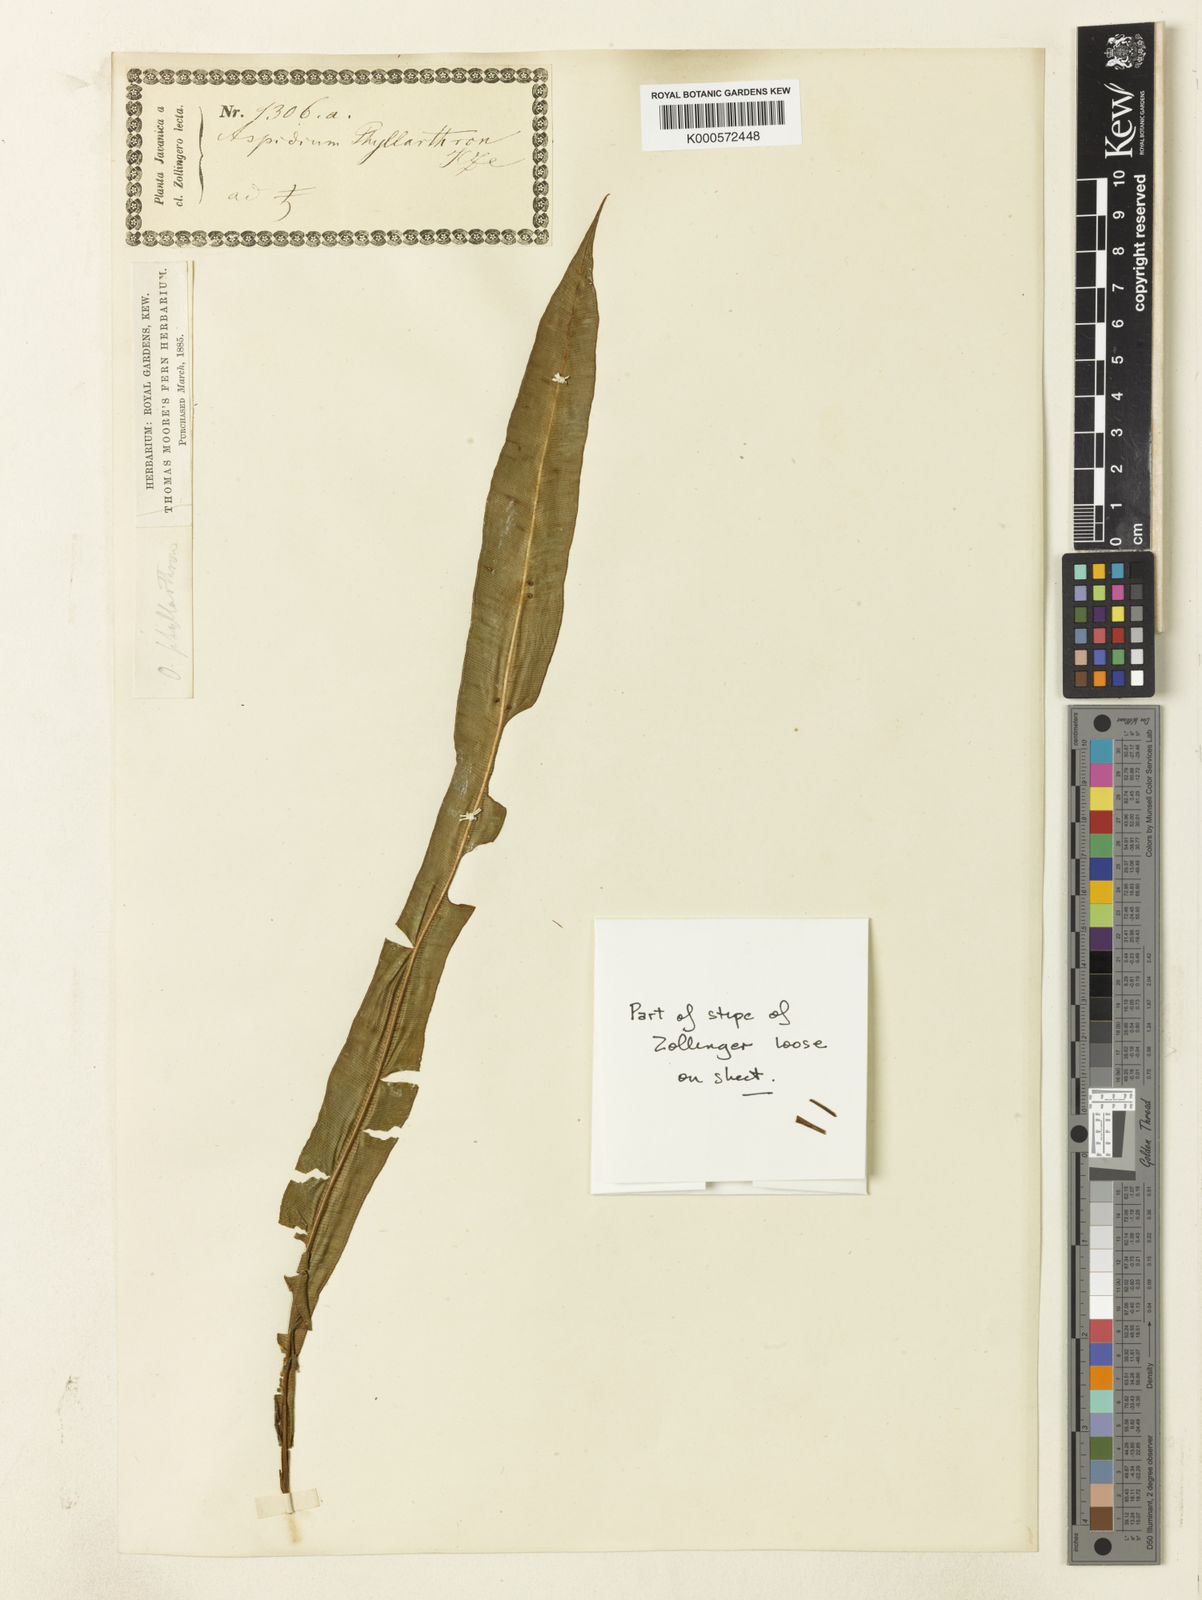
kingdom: Plantae
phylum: Tracheophyta
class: Polypodiopsida
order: Polypodiales
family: Oleandraceae
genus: Oleandra
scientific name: Oleandra neriiformis
